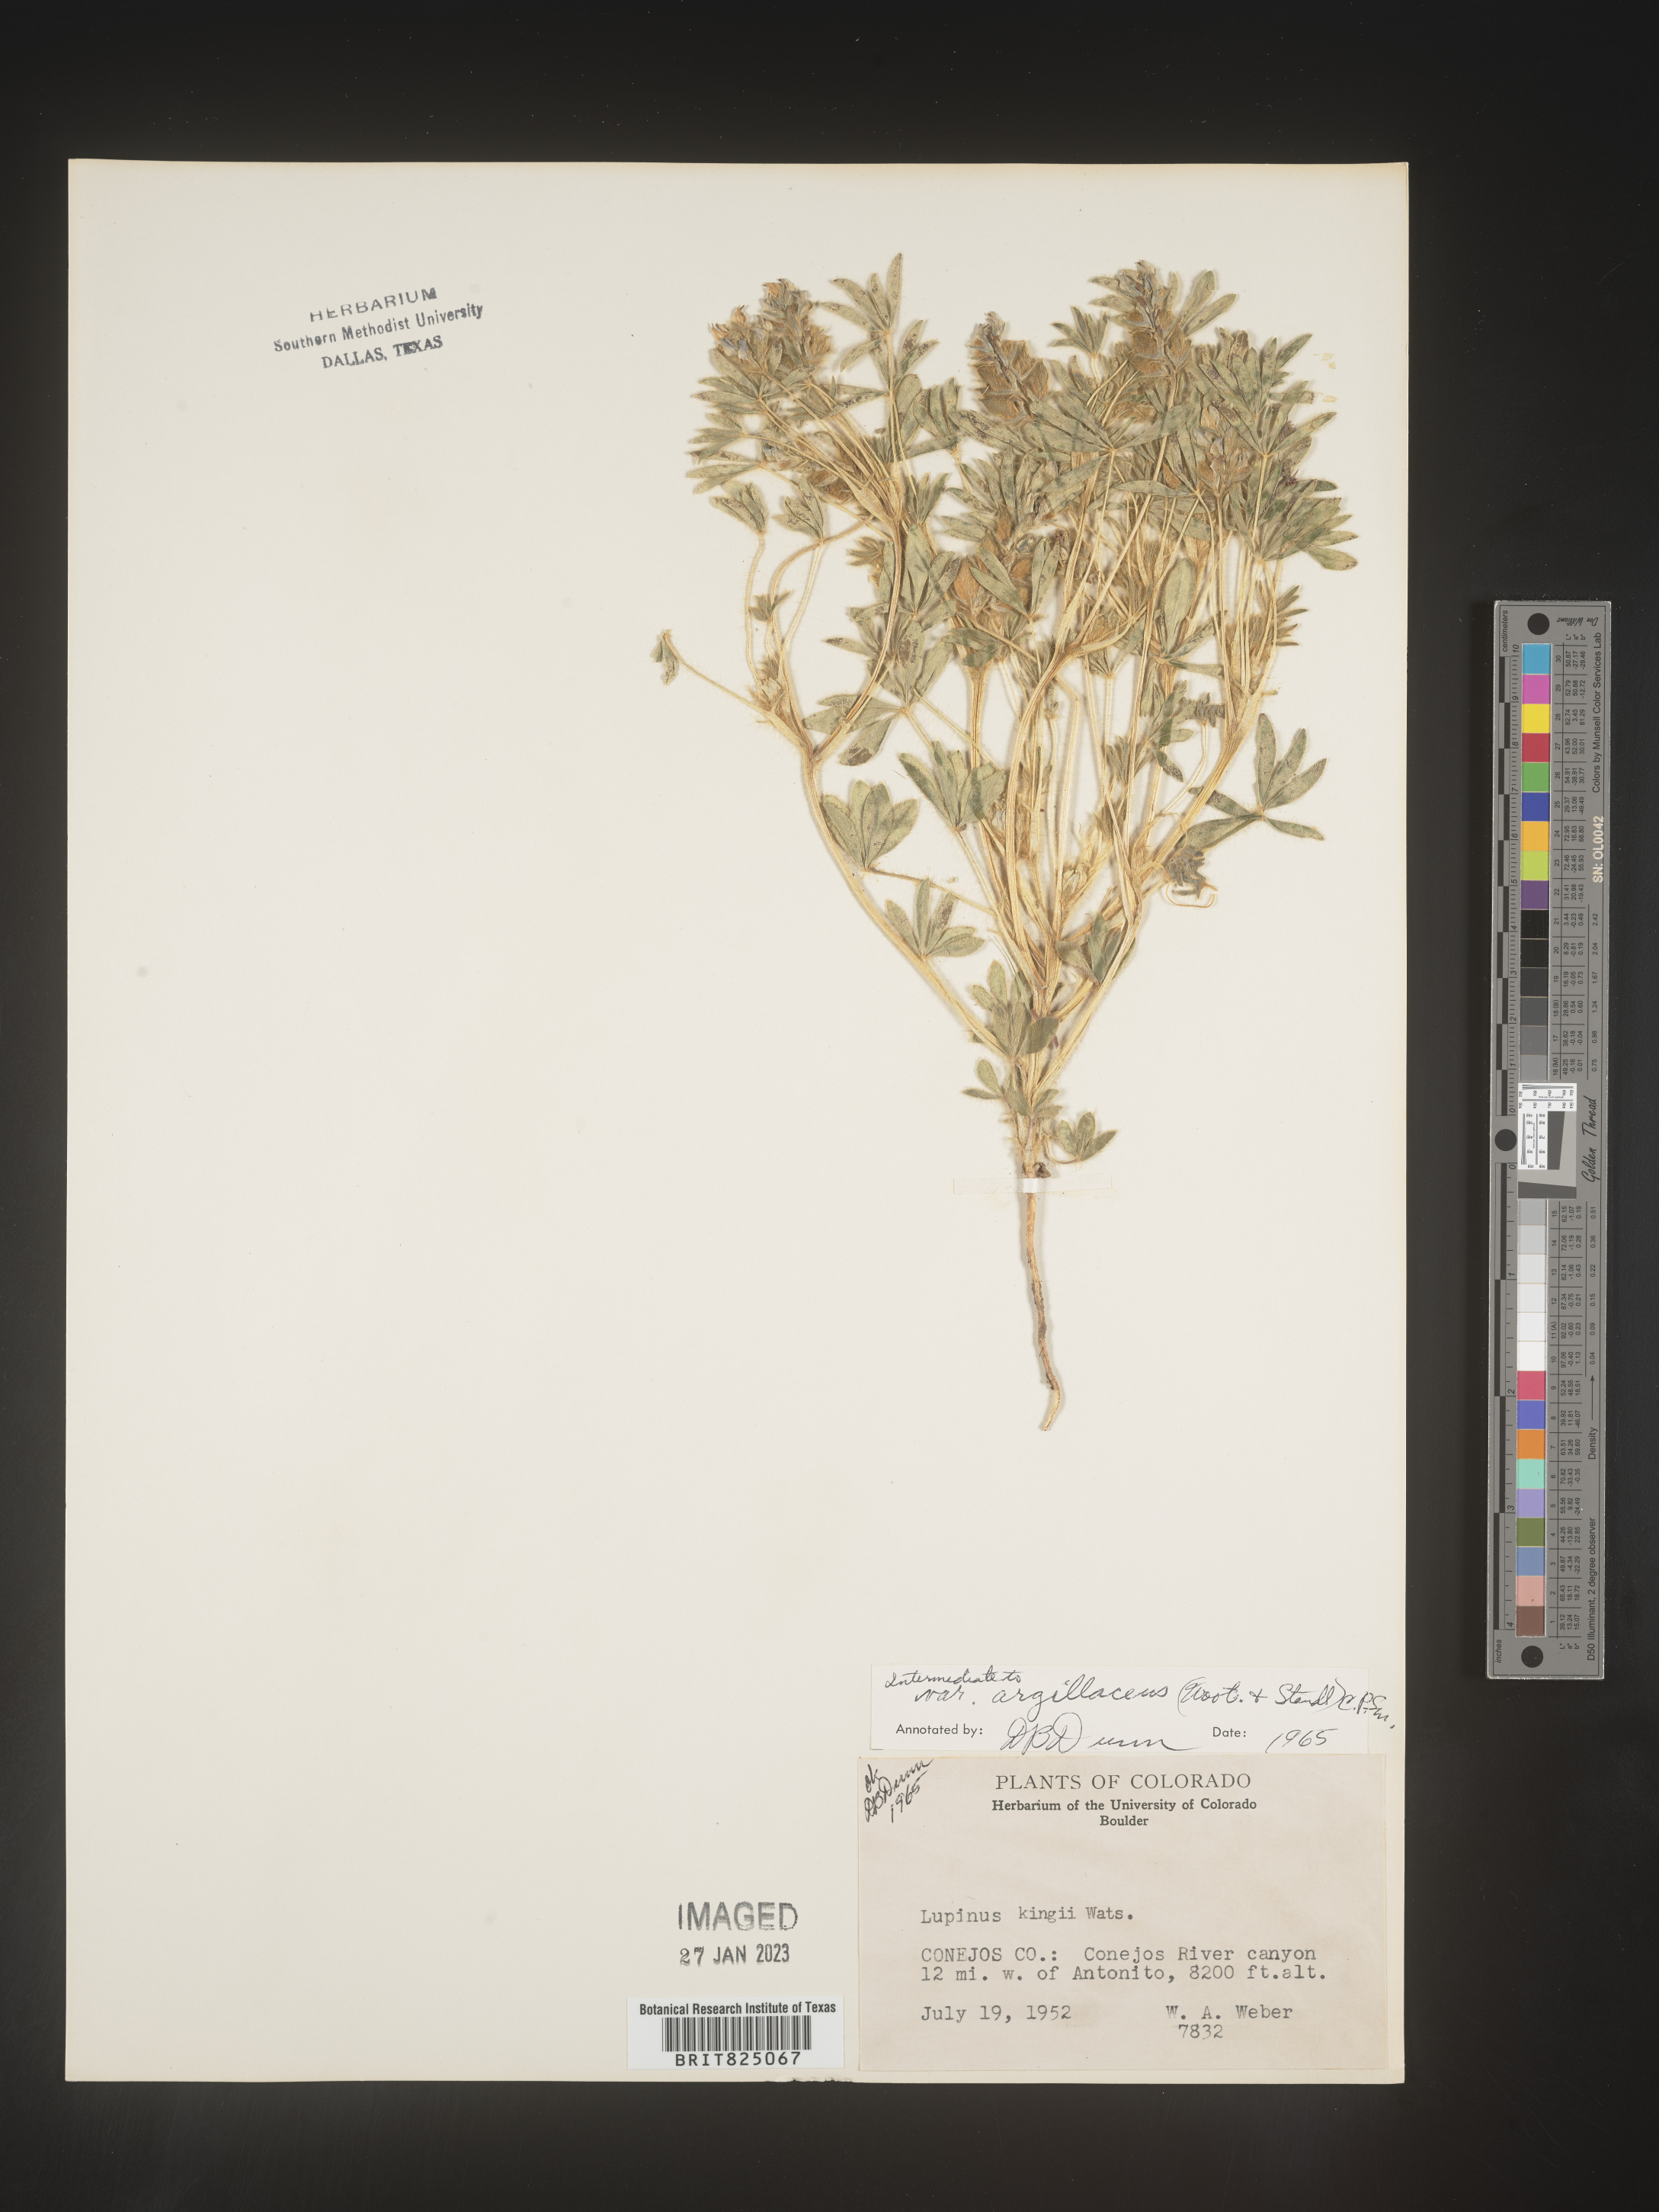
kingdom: Plantae
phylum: Tracheophyta
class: Magnoliopsida
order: Fabales
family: Fabaceae
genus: Lupinus
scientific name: Lupinus
